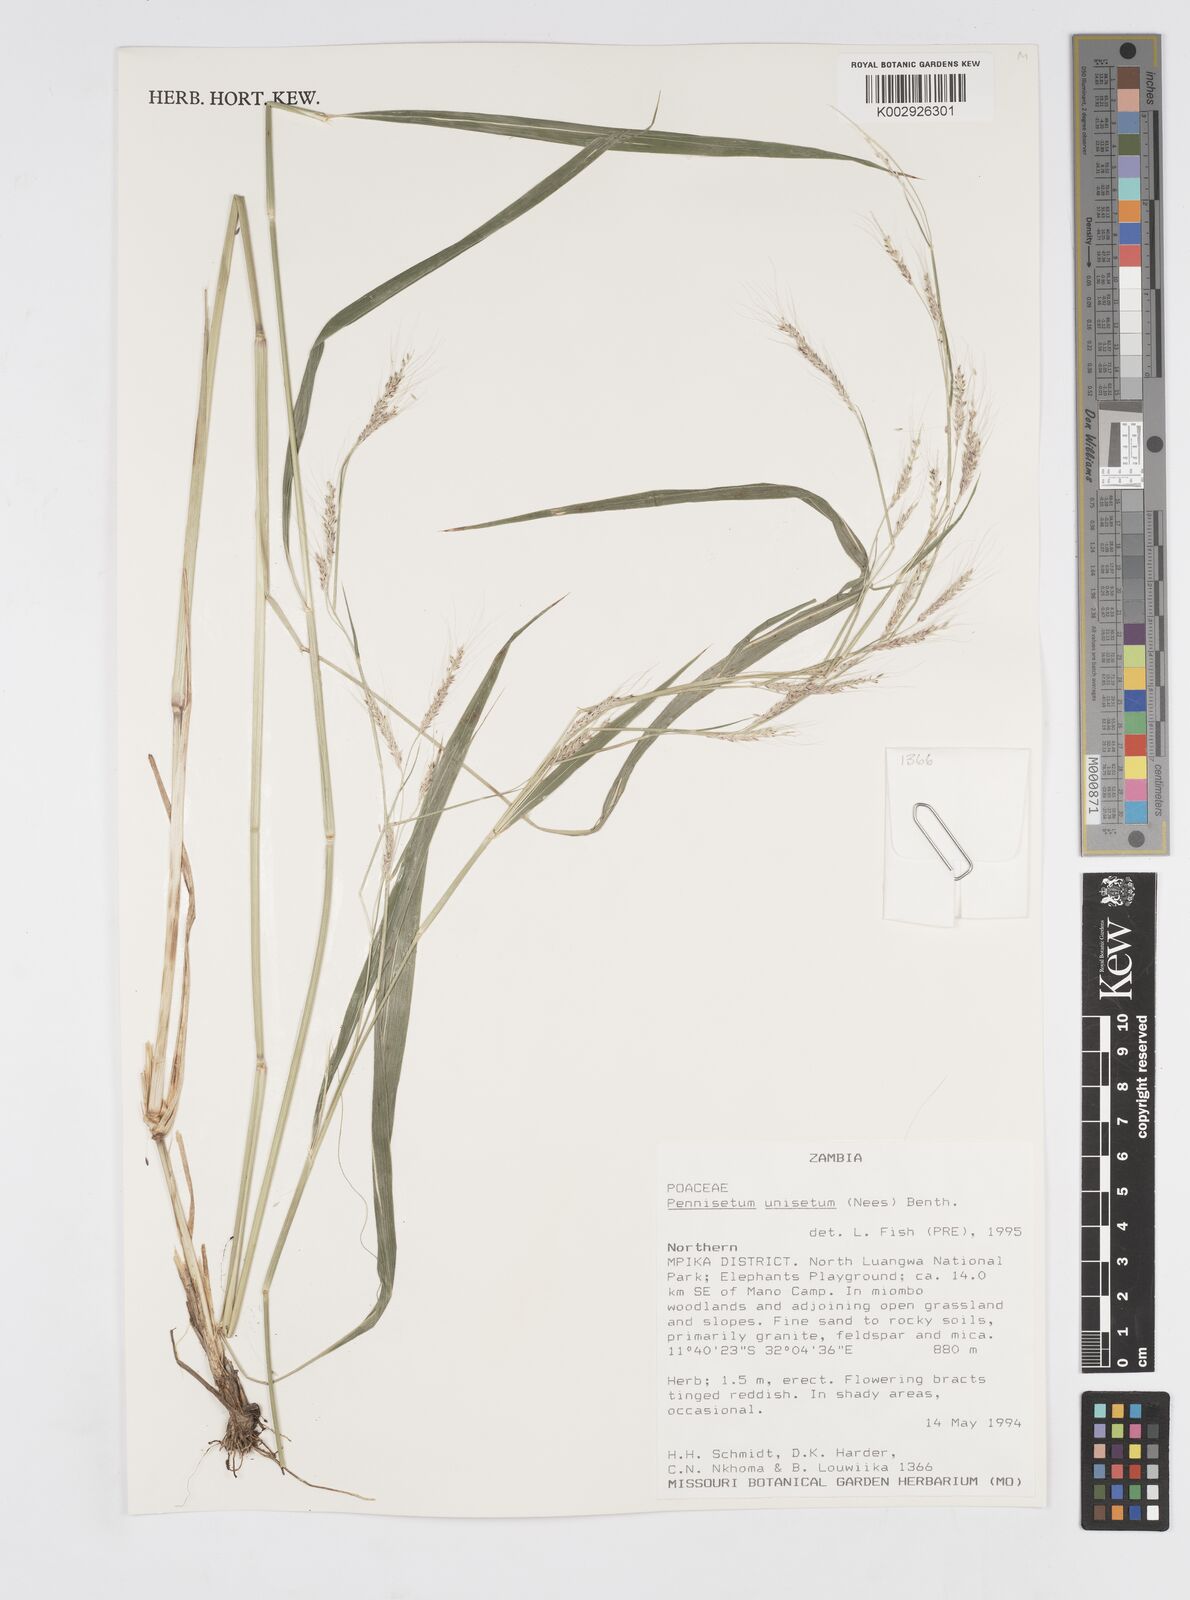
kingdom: Plantae
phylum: Tracheophyta
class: Liliopsida
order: Poales
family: Poaceae
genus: Cenchrus
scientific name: Cenchrus unisetus
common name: Natal grass
